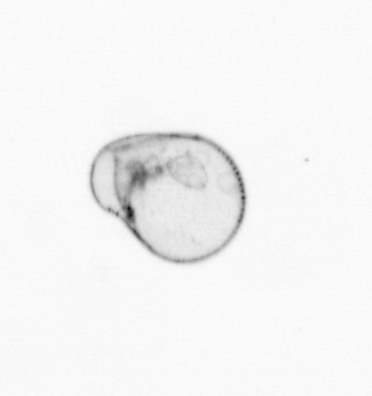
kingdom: Chromista
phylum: Myzozoa
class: Dinophyceae
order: Noctilucales
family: Noctilucaceae
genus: Noctiluca
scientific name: Noctiluca scintillans
